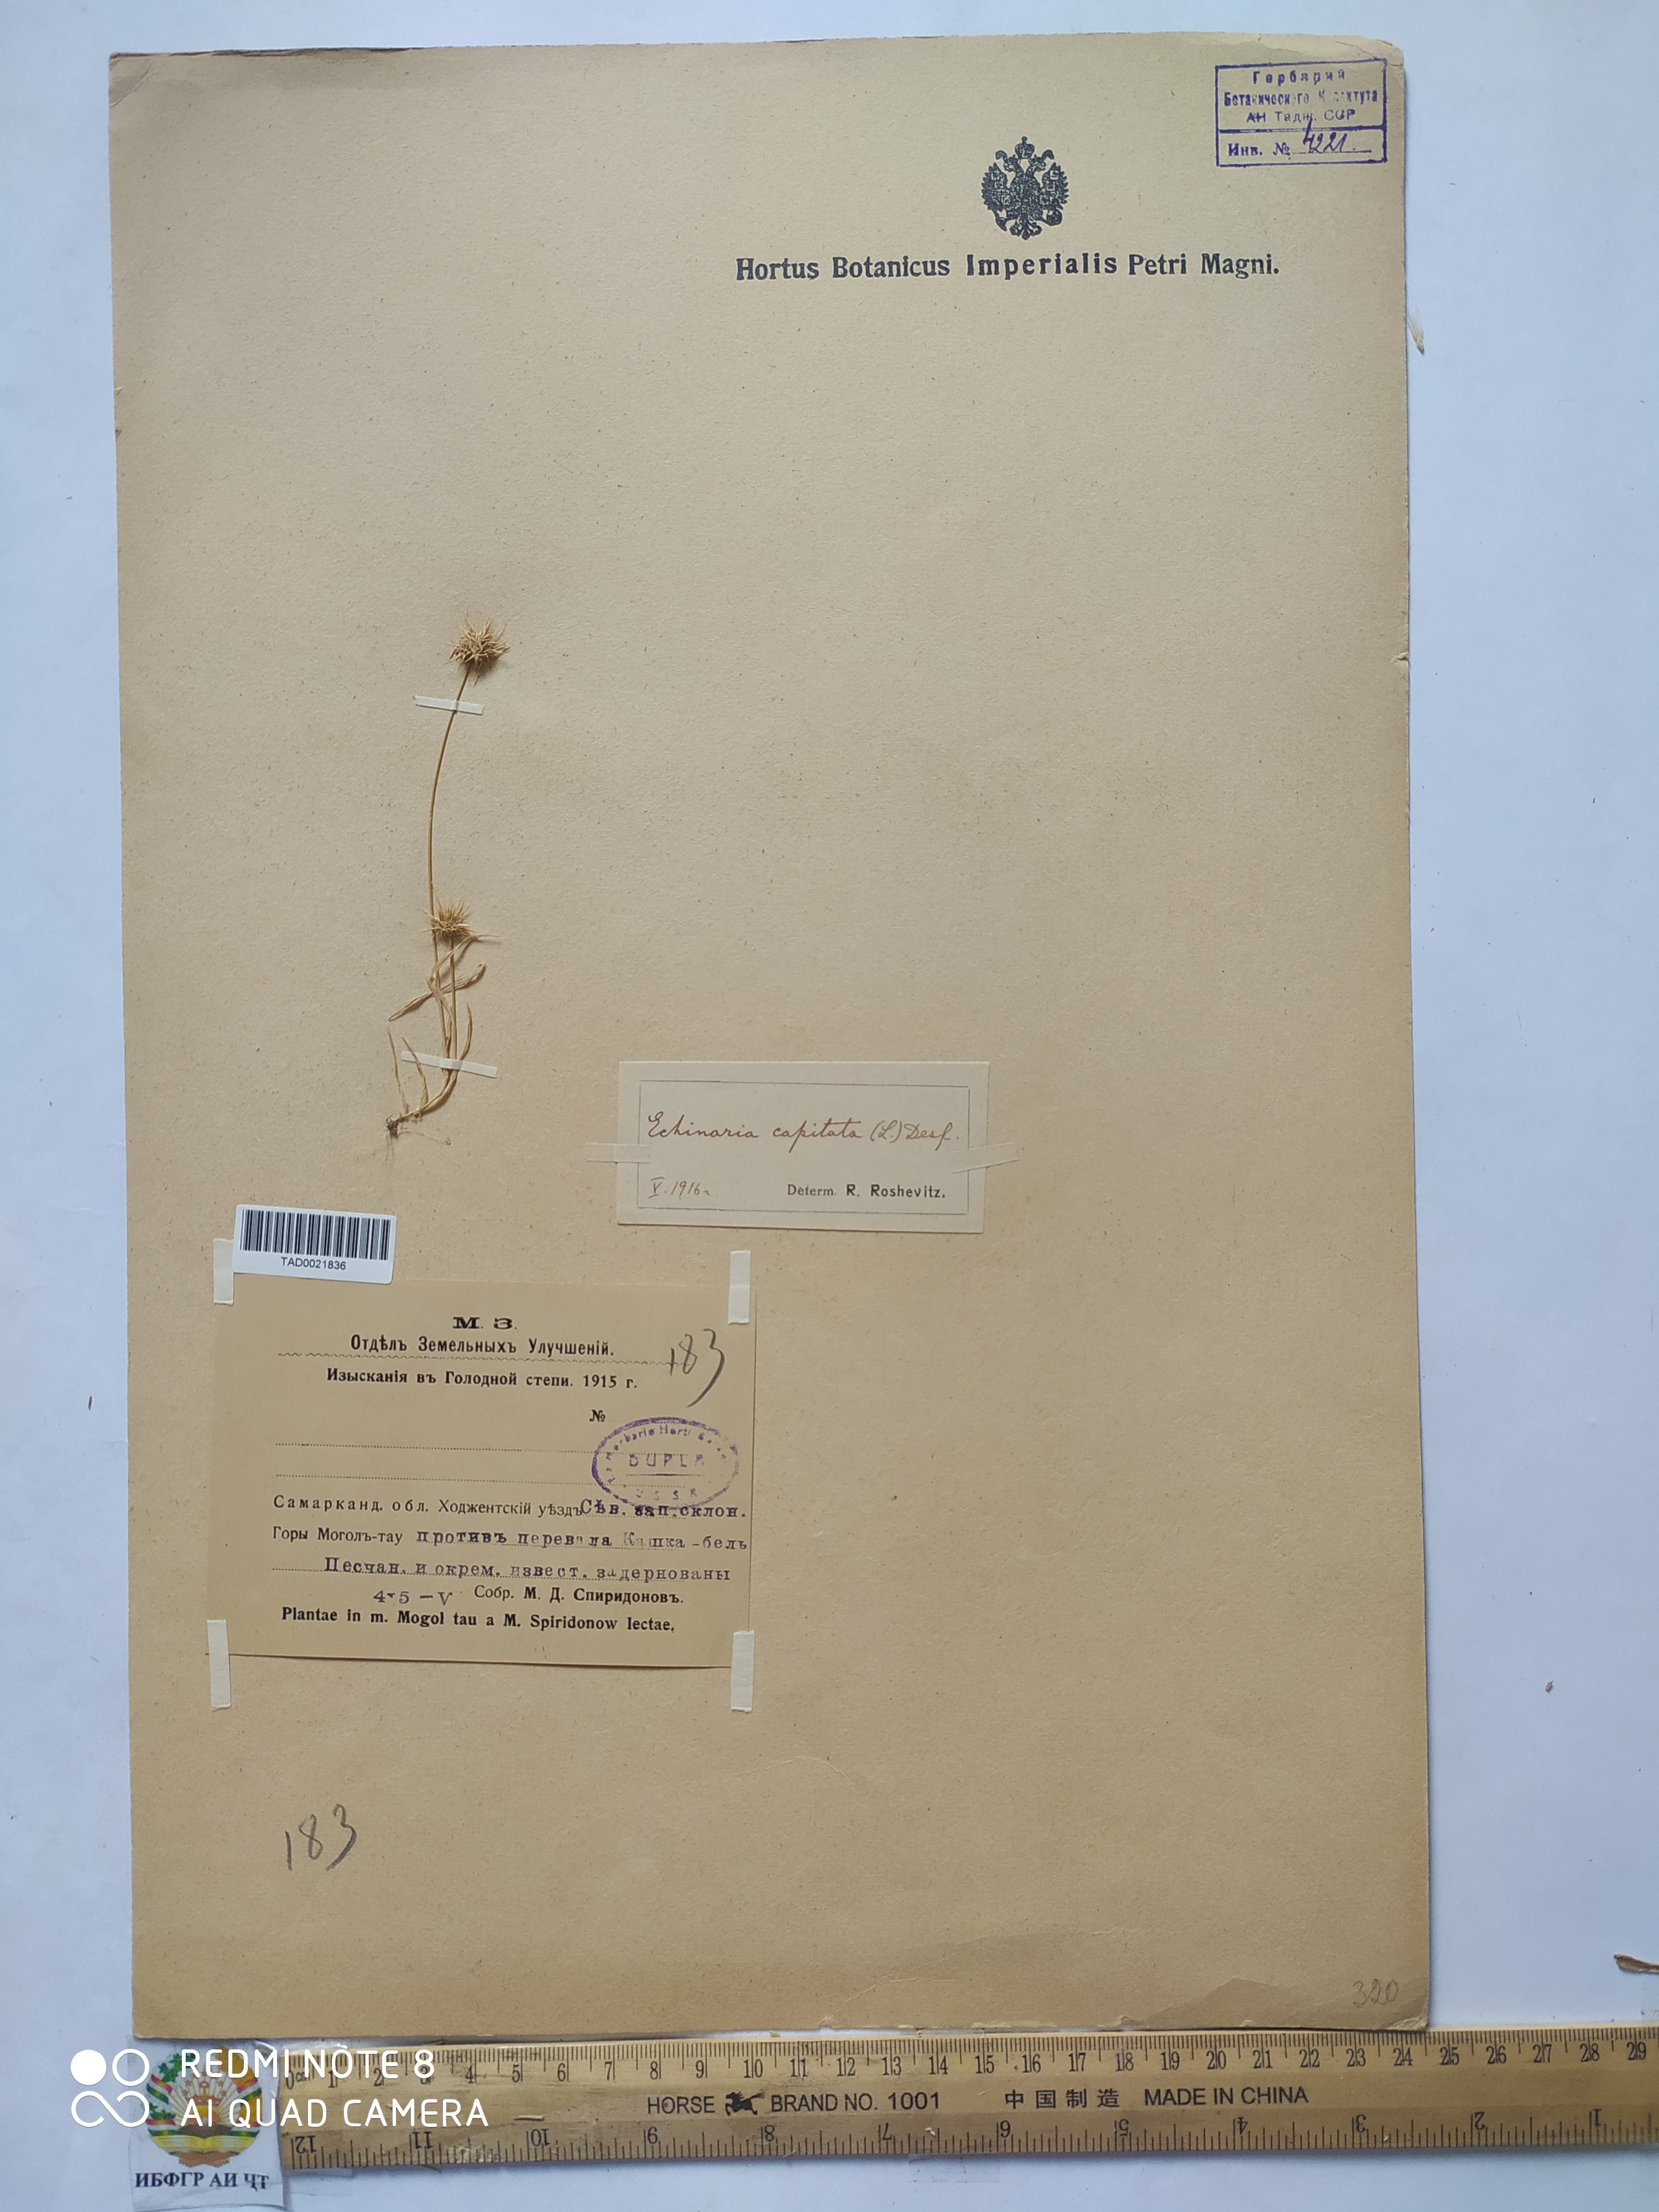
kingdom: Plantae
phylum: Tracheophyta
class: Liliopsida
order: Poales
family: Poaceae
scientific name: Poaceae
